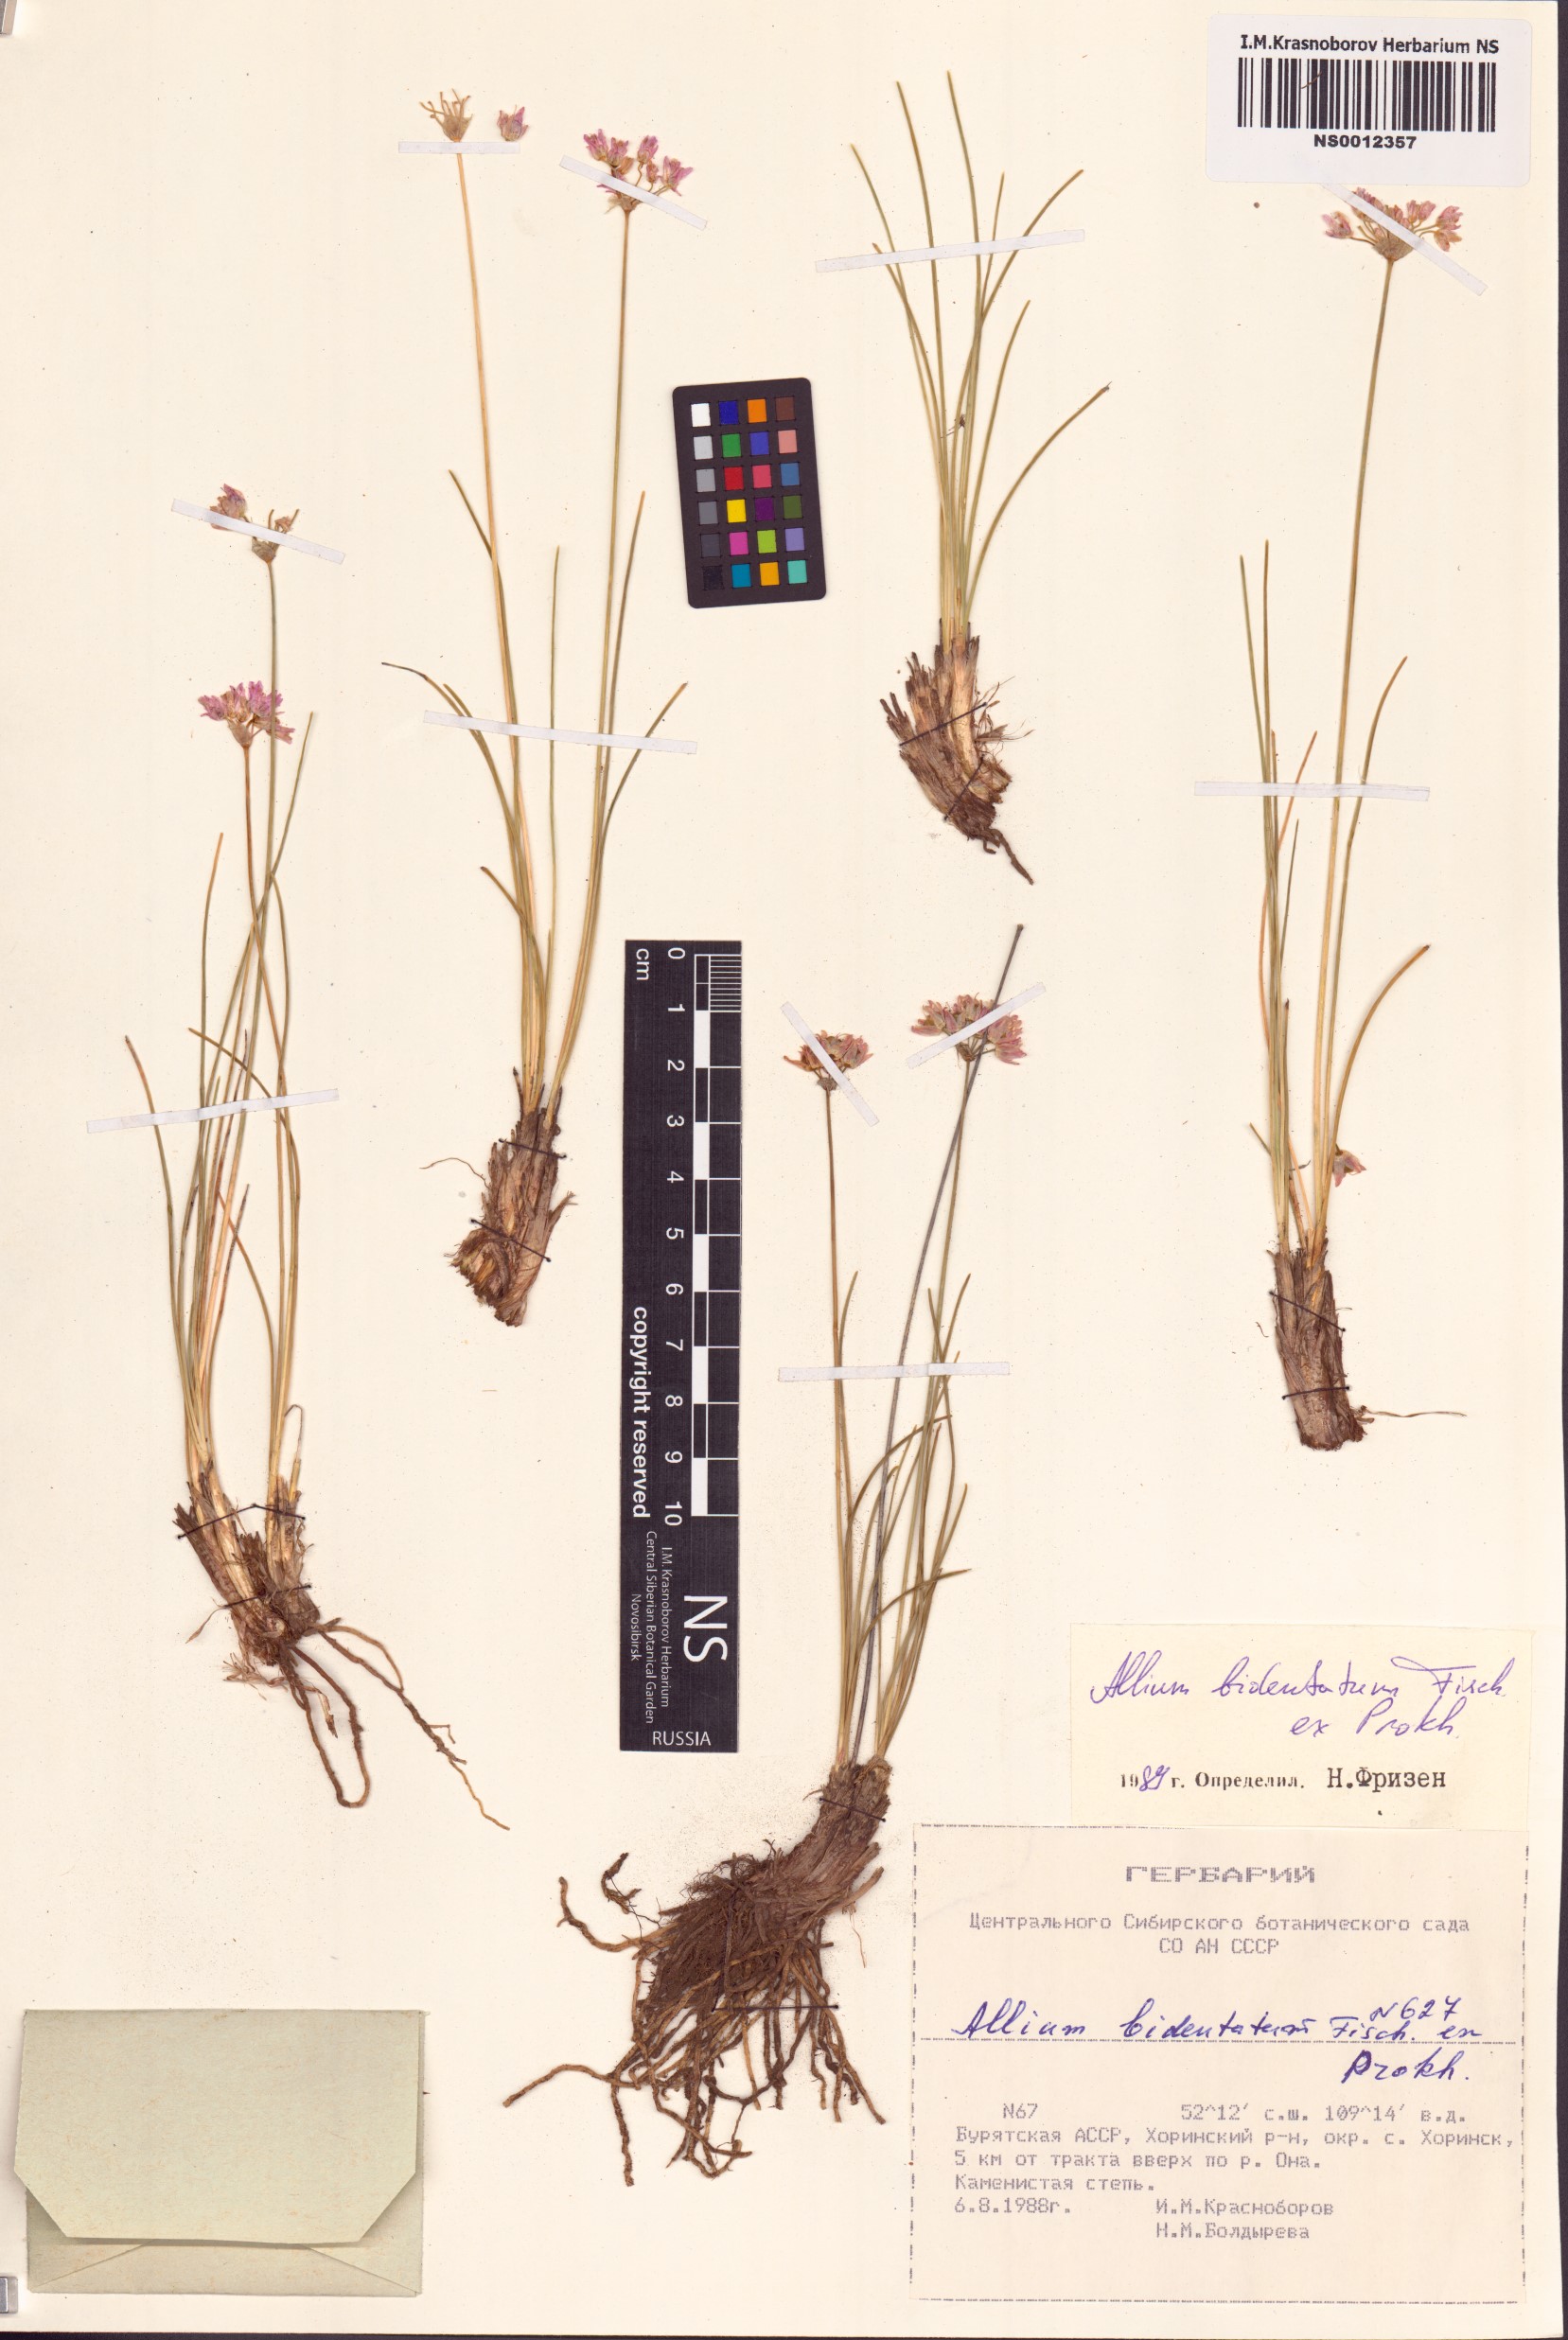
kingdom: Plantae
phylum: Tracheophyta
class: Liliopsida
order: Asparagales
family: Amaryllidaceae
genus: Allium
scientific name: Allium bidentatum
